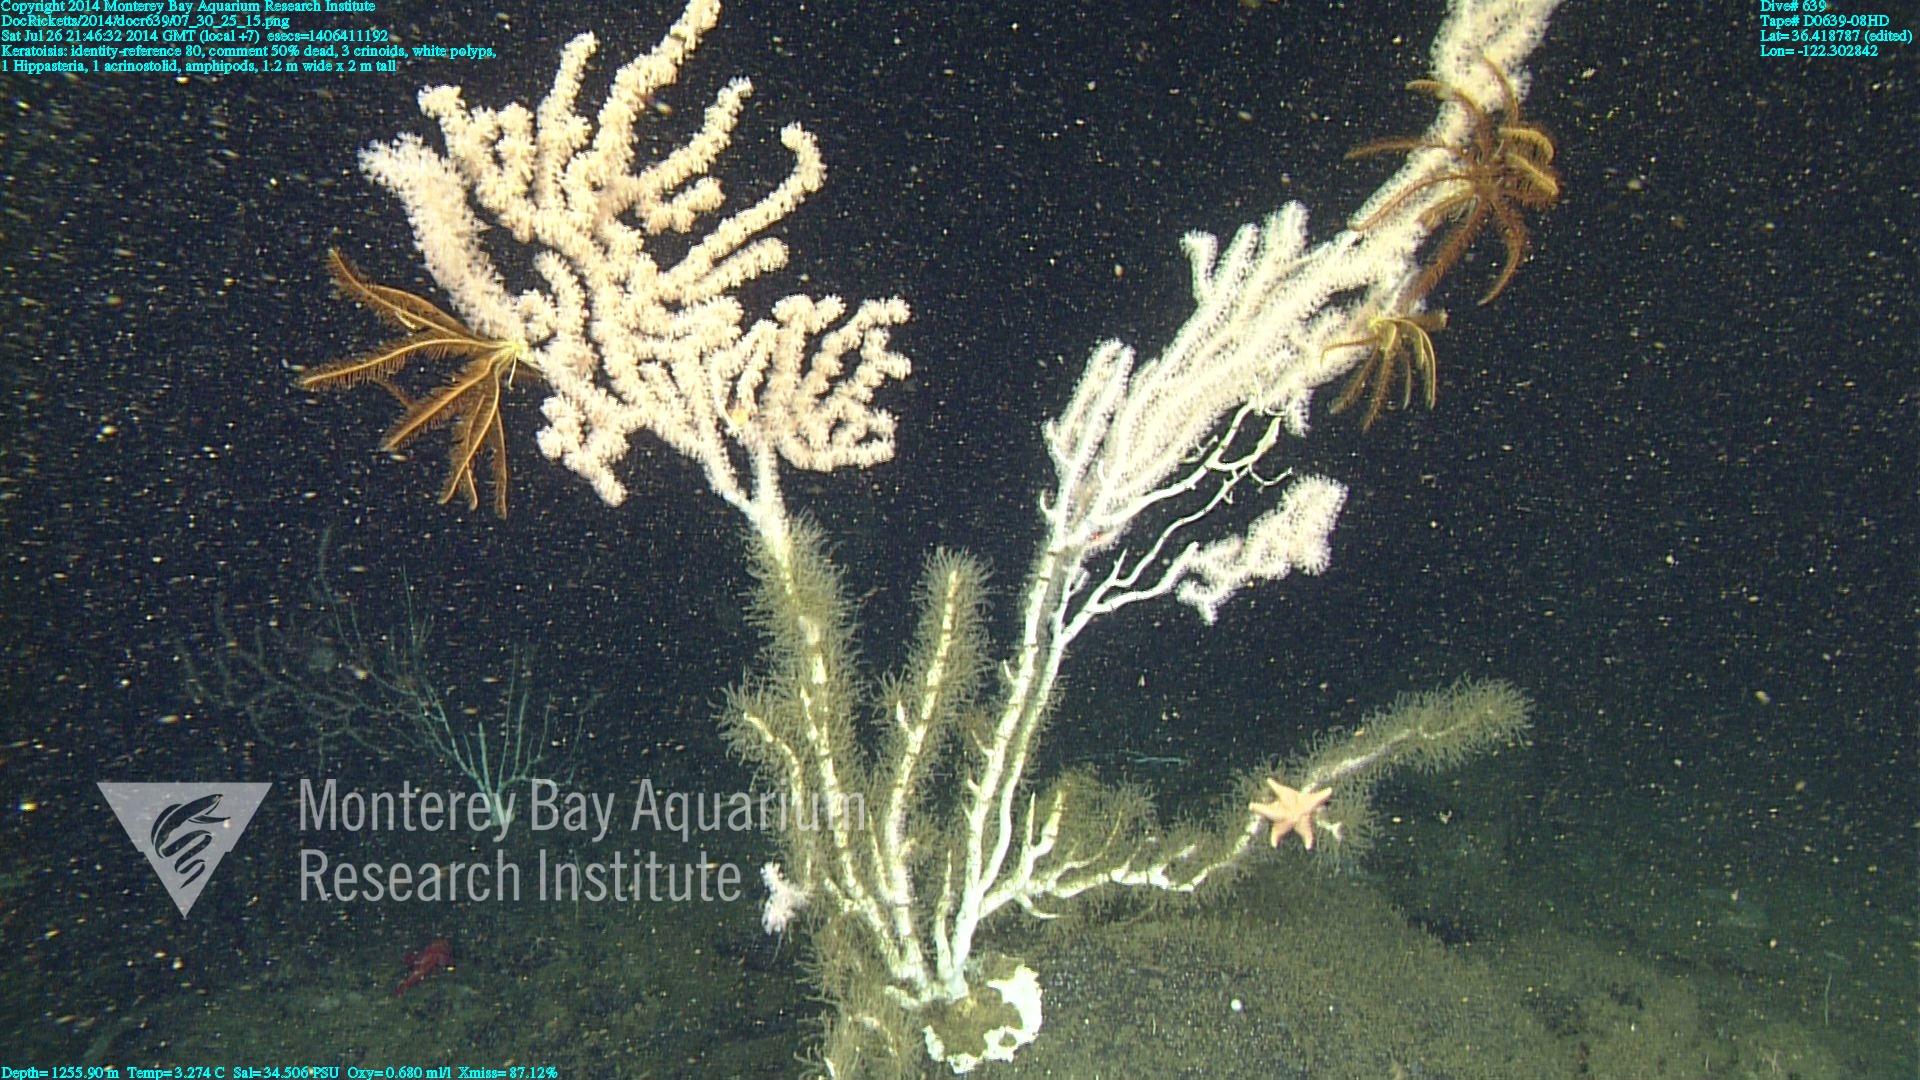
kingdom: Animalia
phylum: Cnidaria
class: Anthozoa
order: Scleralcyonacea
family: Keratoisididae
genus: Keratoisis
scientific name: Keratoisis
